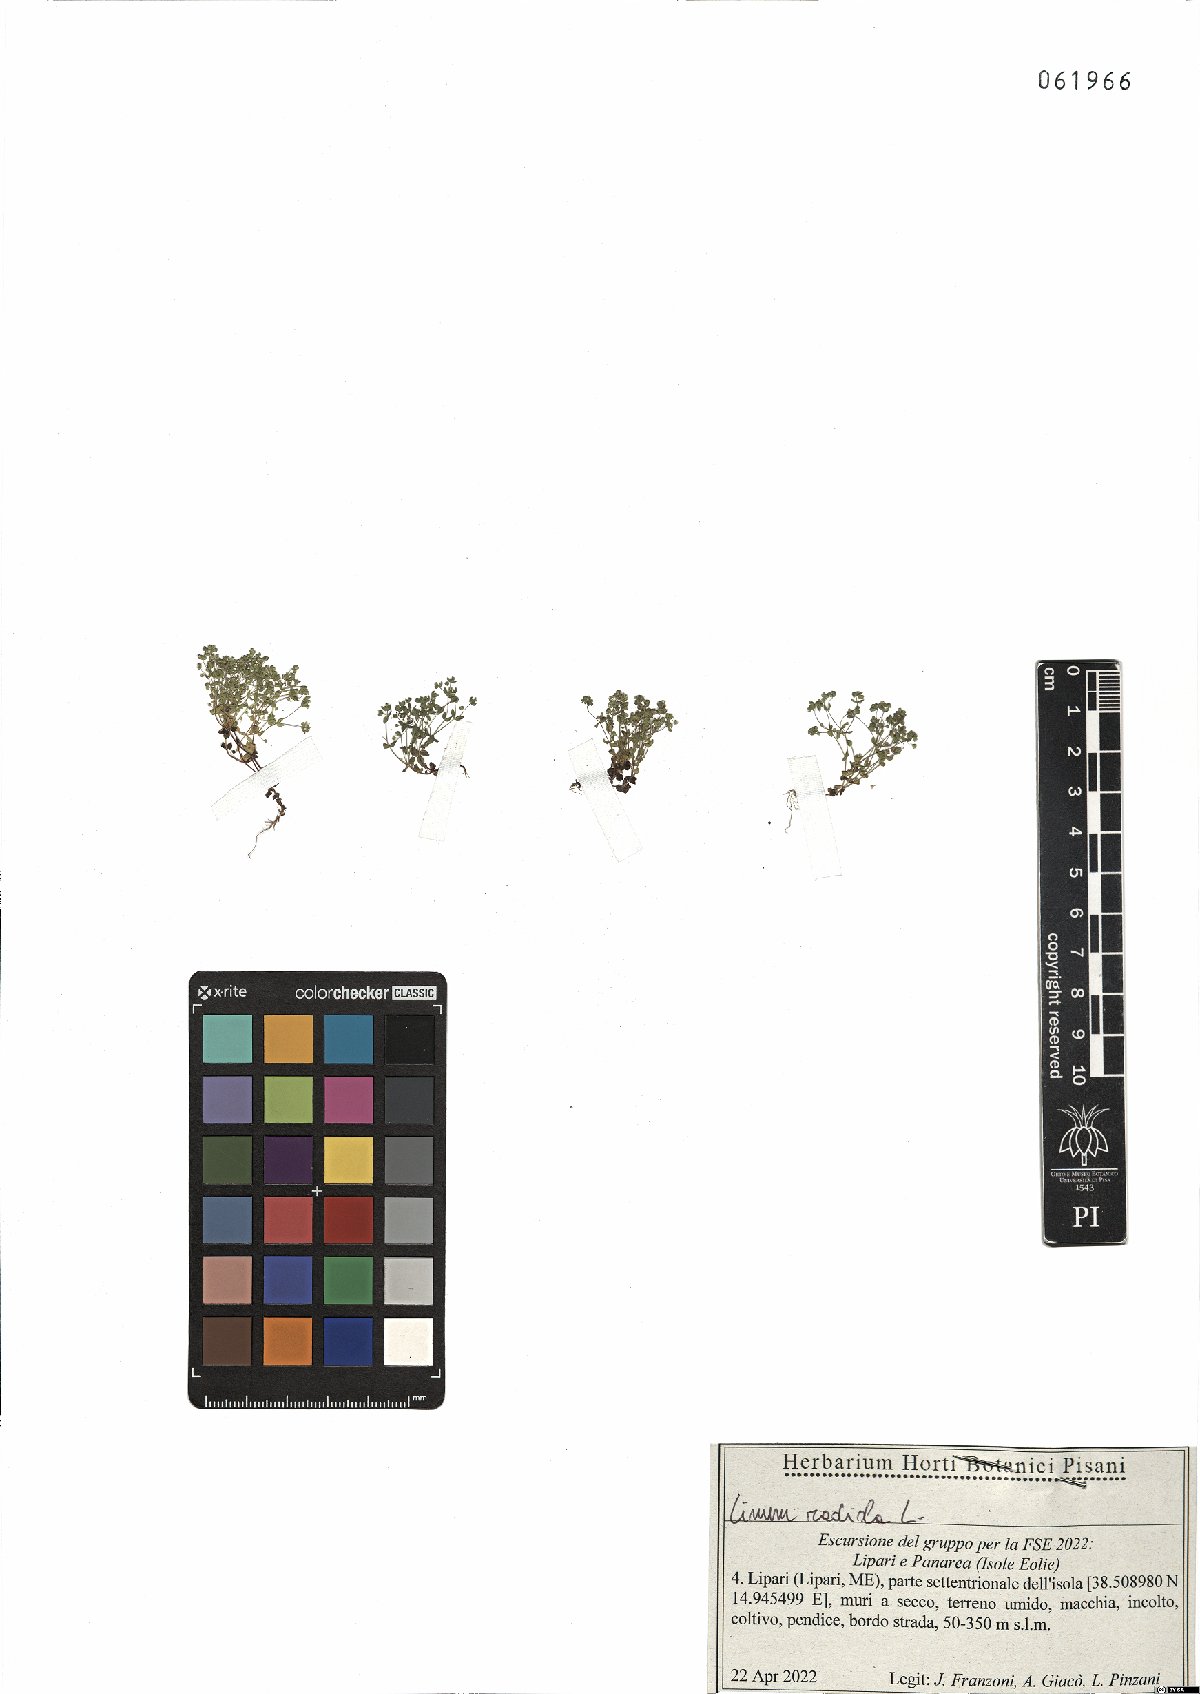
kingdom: Plantae
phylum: Tracheophyta
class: Magnoliopsida
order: Malpighiales
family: Linaceae
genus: Radiola
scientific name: Radiola linoides
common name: Allseed
